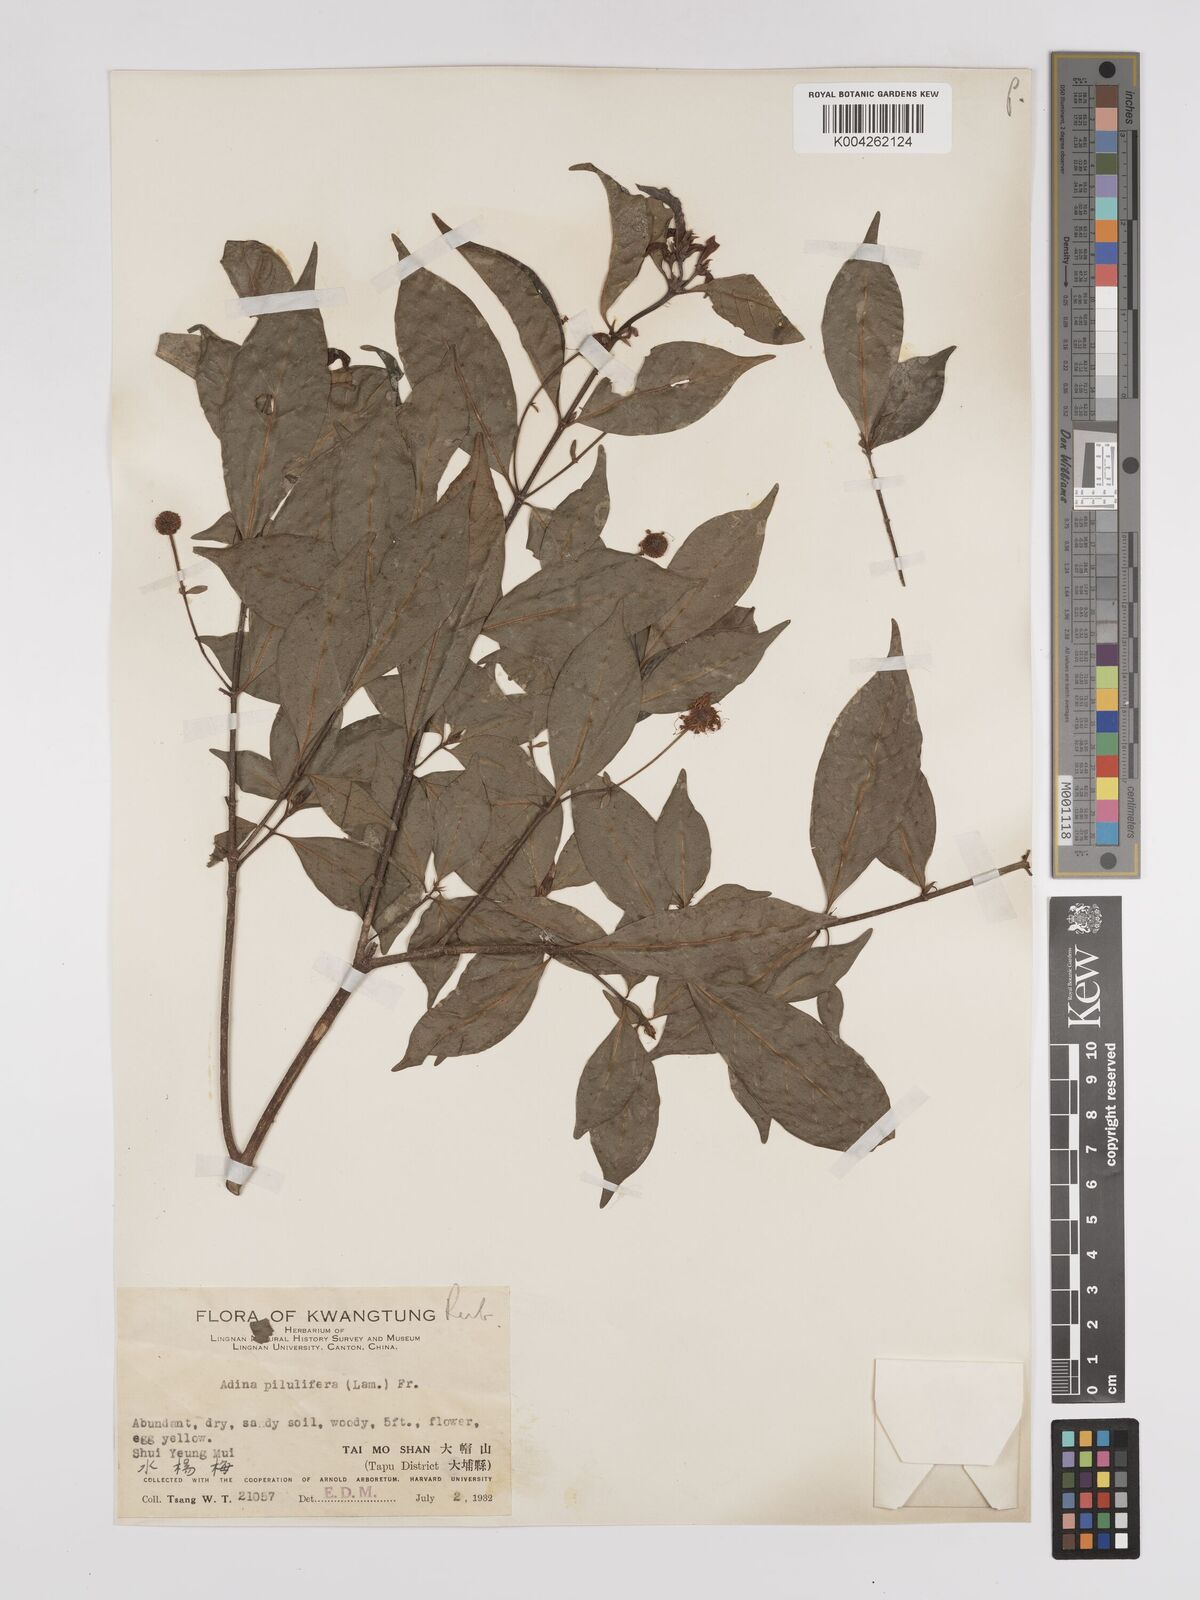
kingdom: Plantae
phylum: Tracheophyta
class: Magnoliopsida
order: Gentianales
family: Rubiaceae
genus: Adina
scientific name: Adina pilulifera
